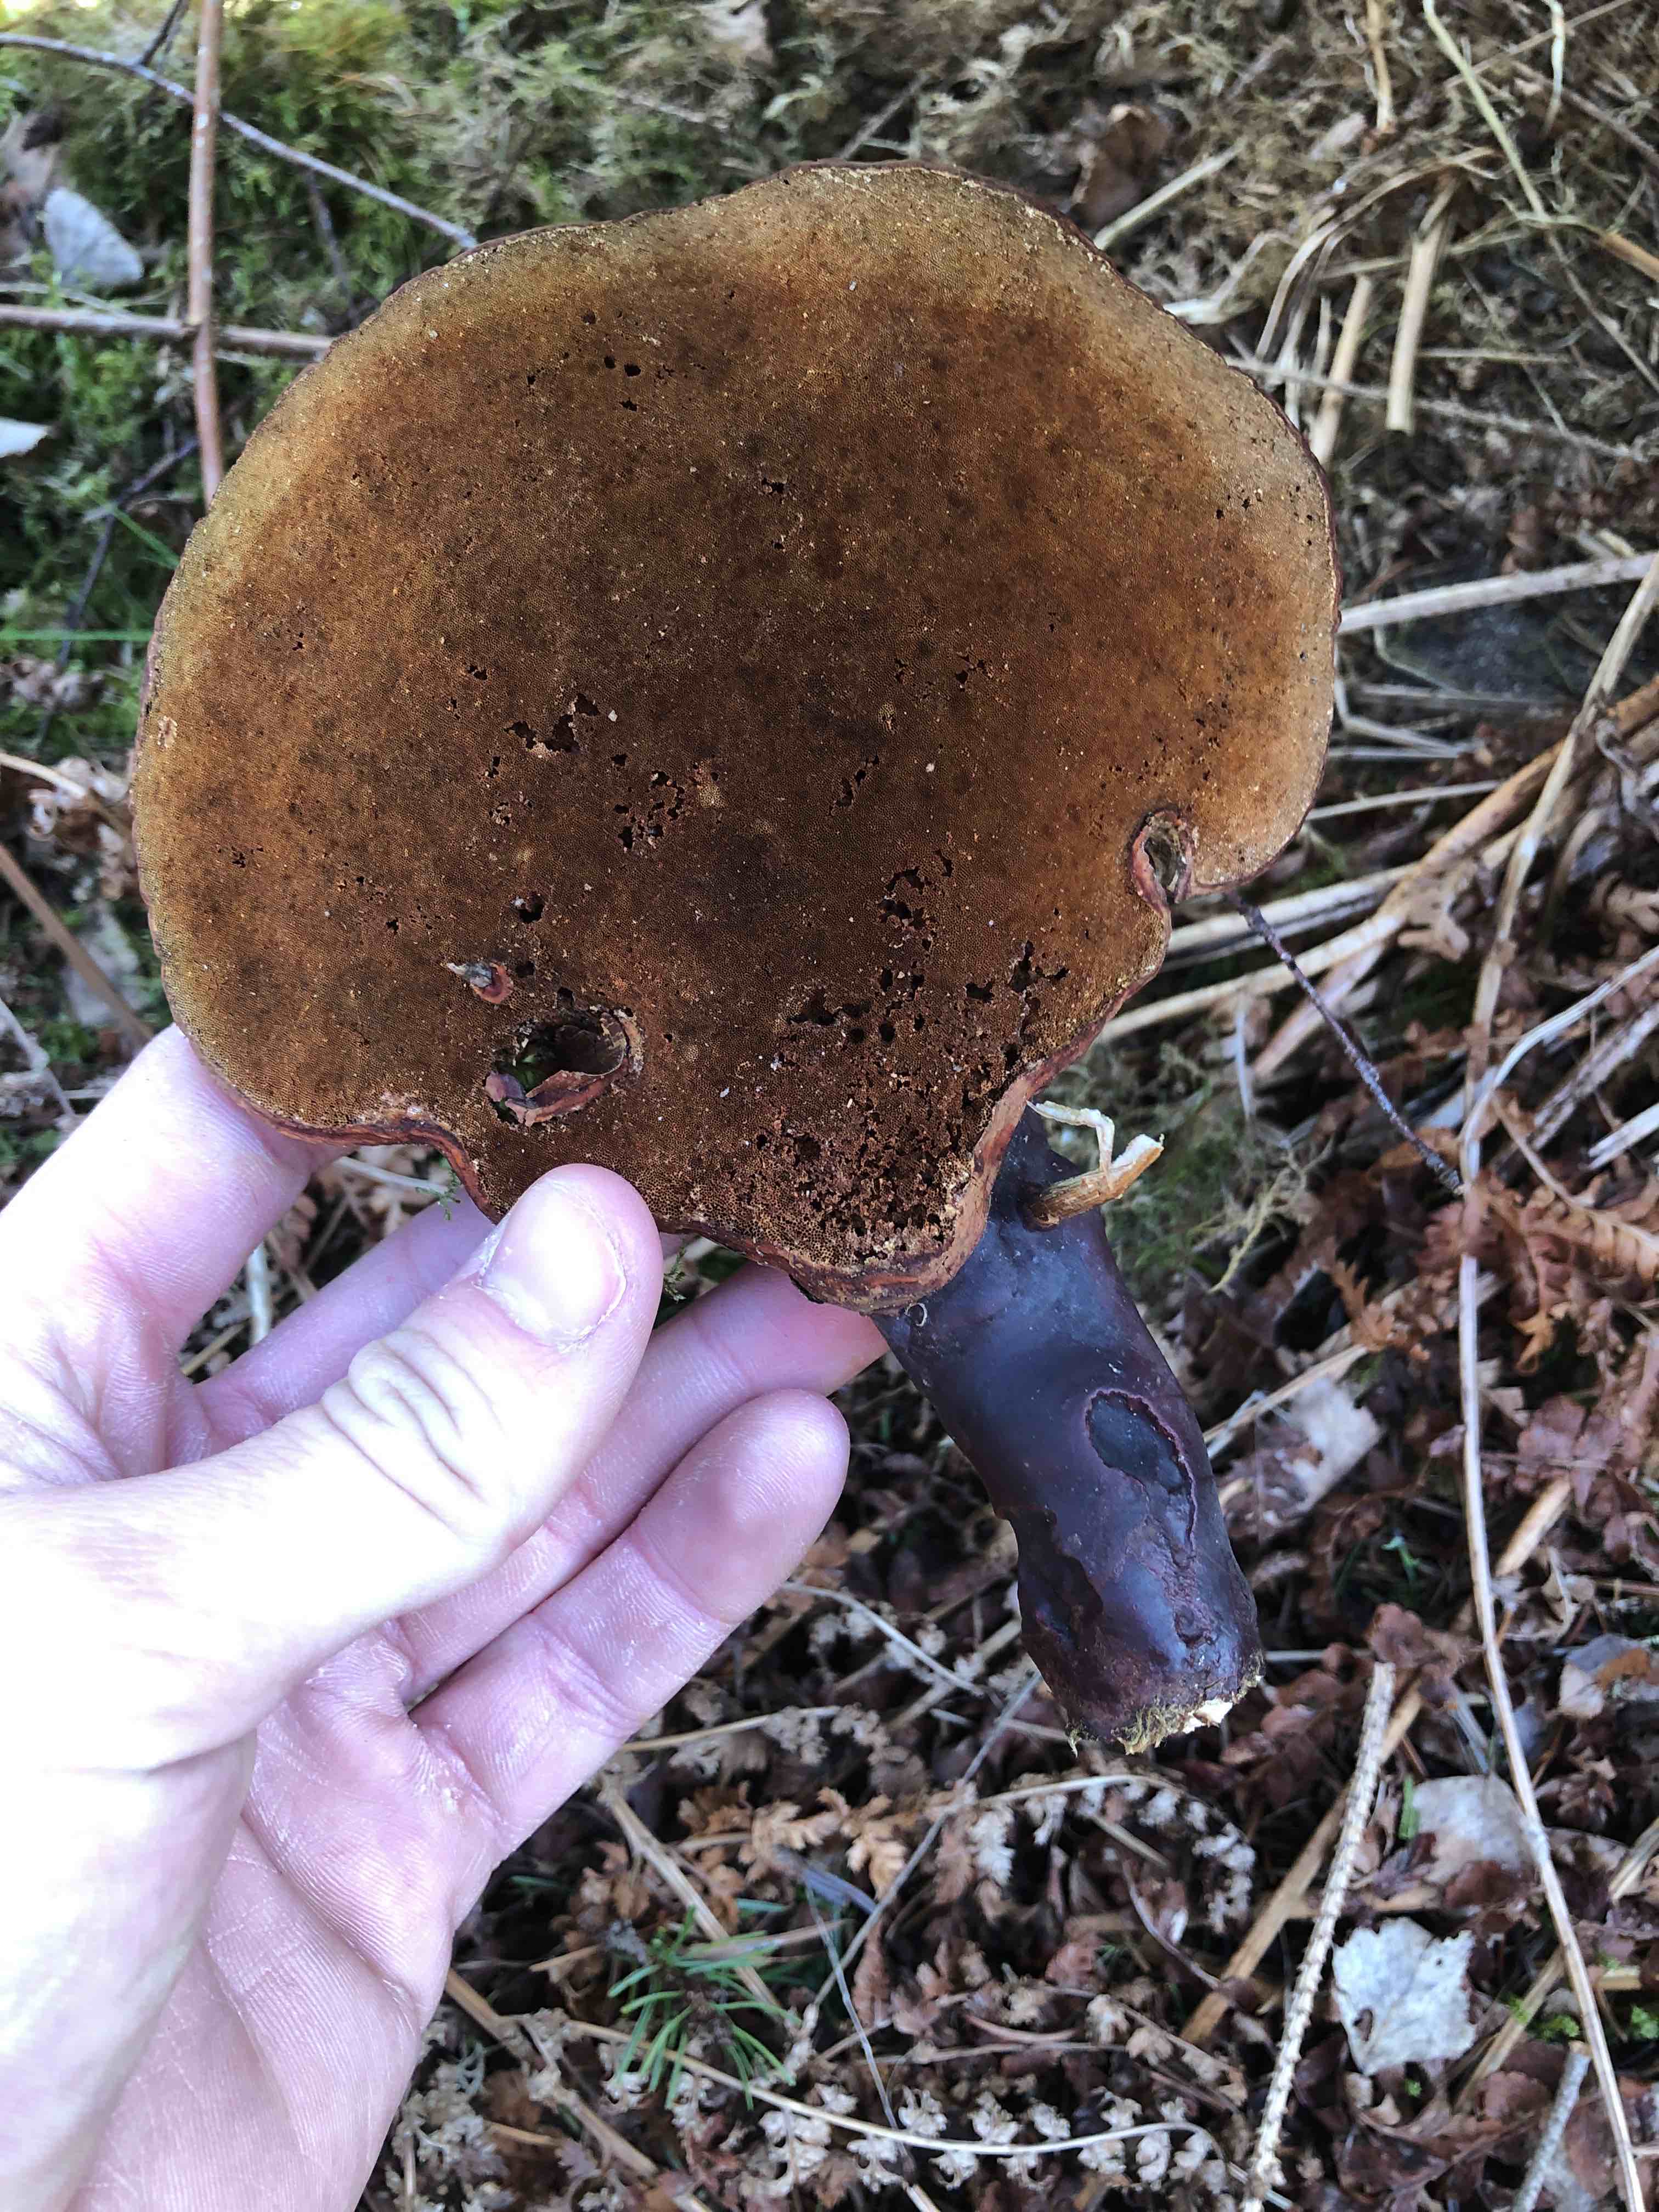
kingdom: Fungi
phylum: Basidiomycota
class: Agaricomycetes
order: Polyporales
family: Polyporaceae
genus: Ganoderma
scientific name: Ganoderma lucidum
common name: skinnende lakporesvamp
